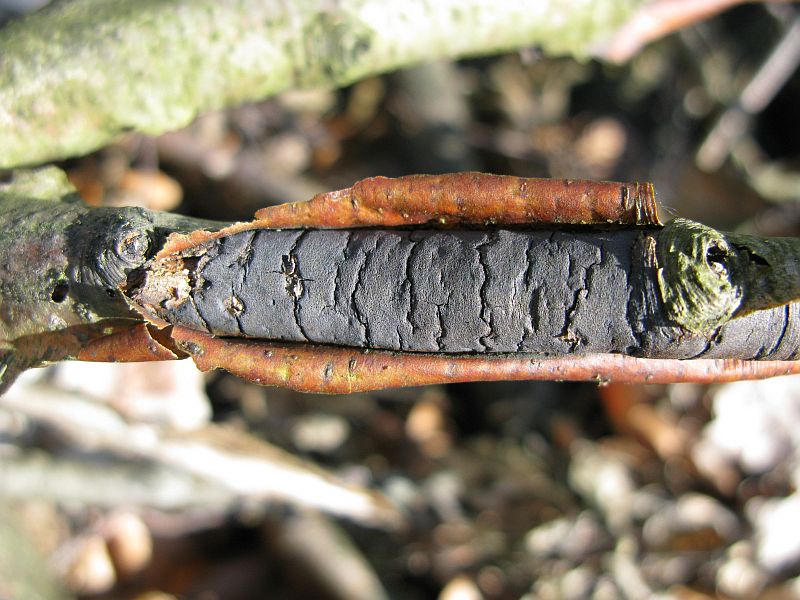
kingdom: Fungi
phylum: Ascomycota
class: Sordariomycetes
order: Xylariales
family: Diatrypaceae
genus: Diatrype
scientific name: Diatrype decorticata
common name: barksprænger-kulskorpe
